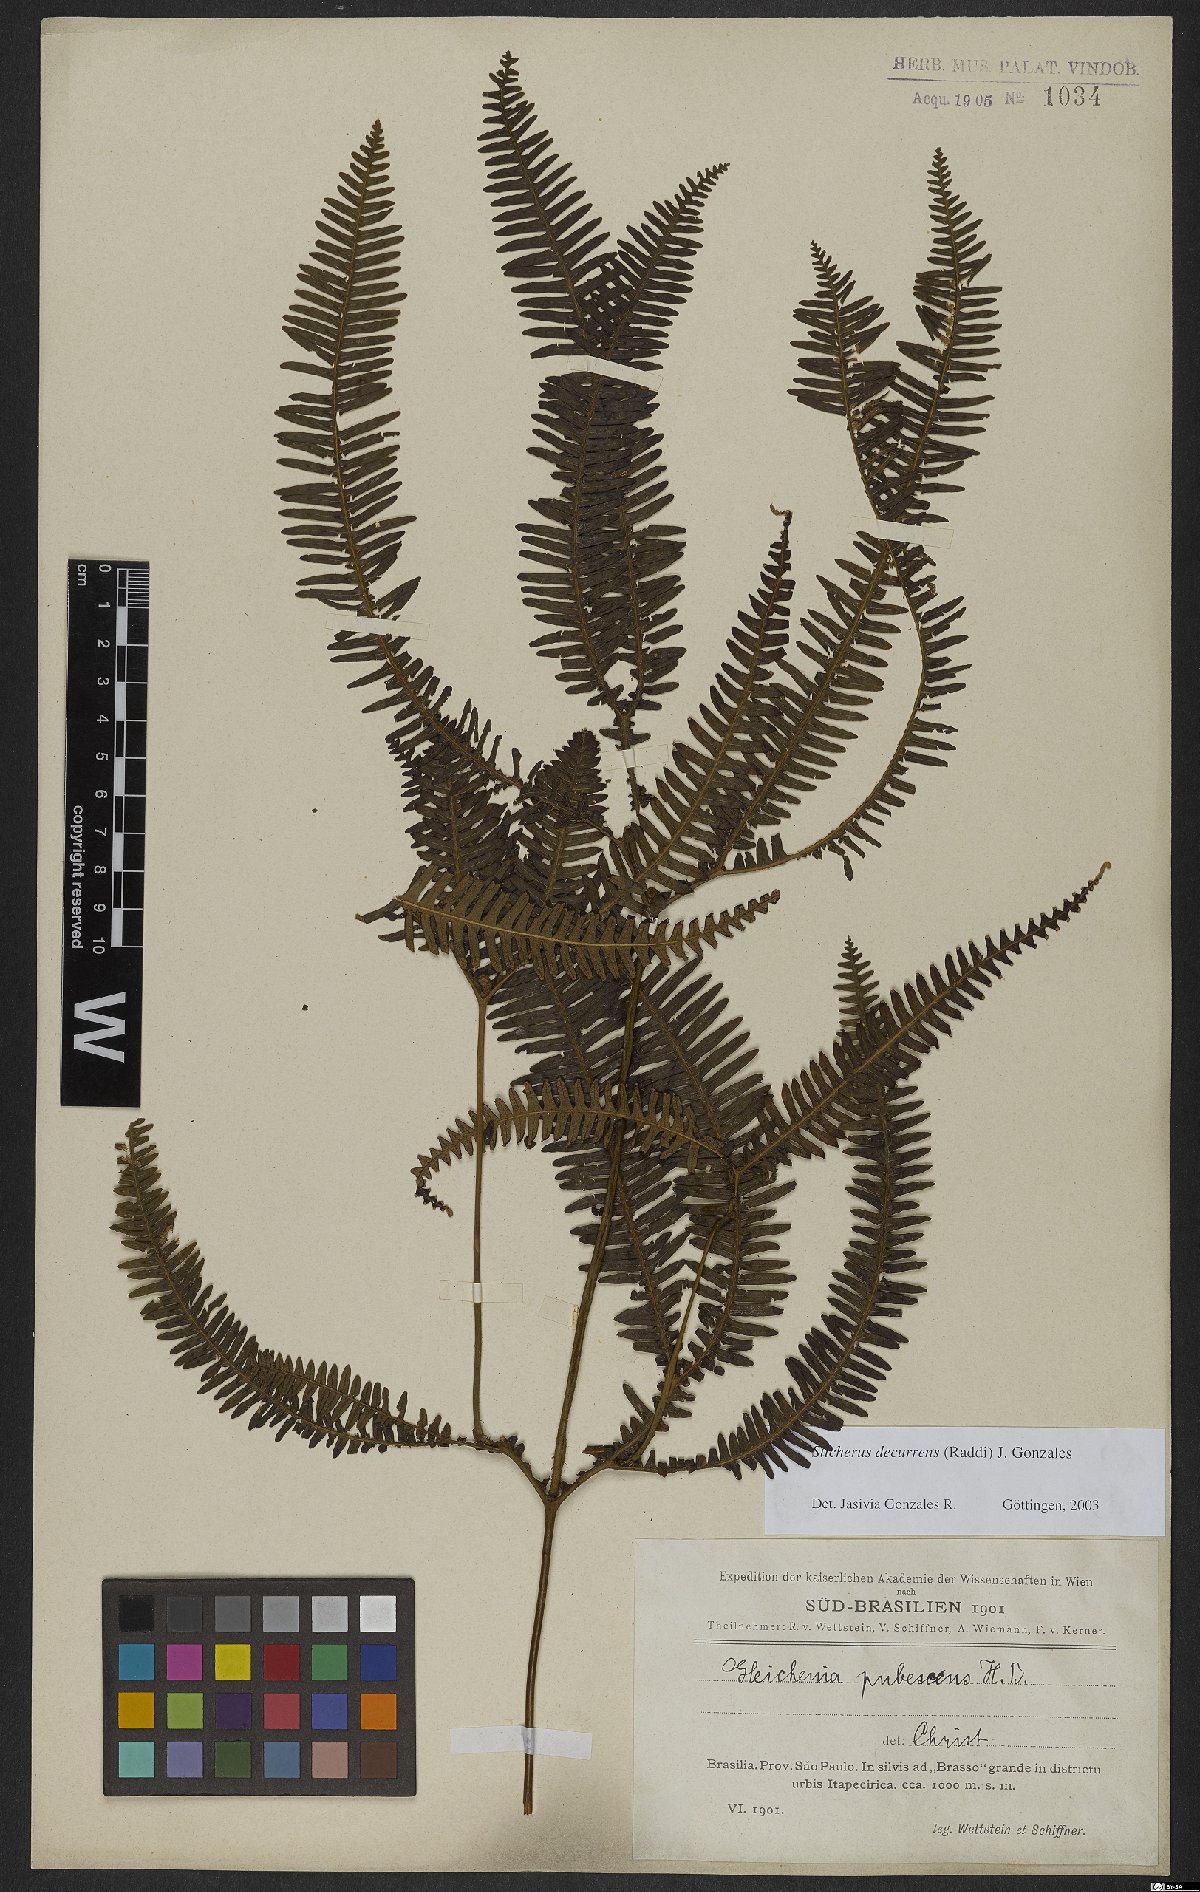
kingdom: Plantae
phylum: Tracheophyta
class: Polypodiopsida
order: Gleicheniales
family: Gleicheniaceae
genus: Sticherus
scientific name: Sticherus decurrens
